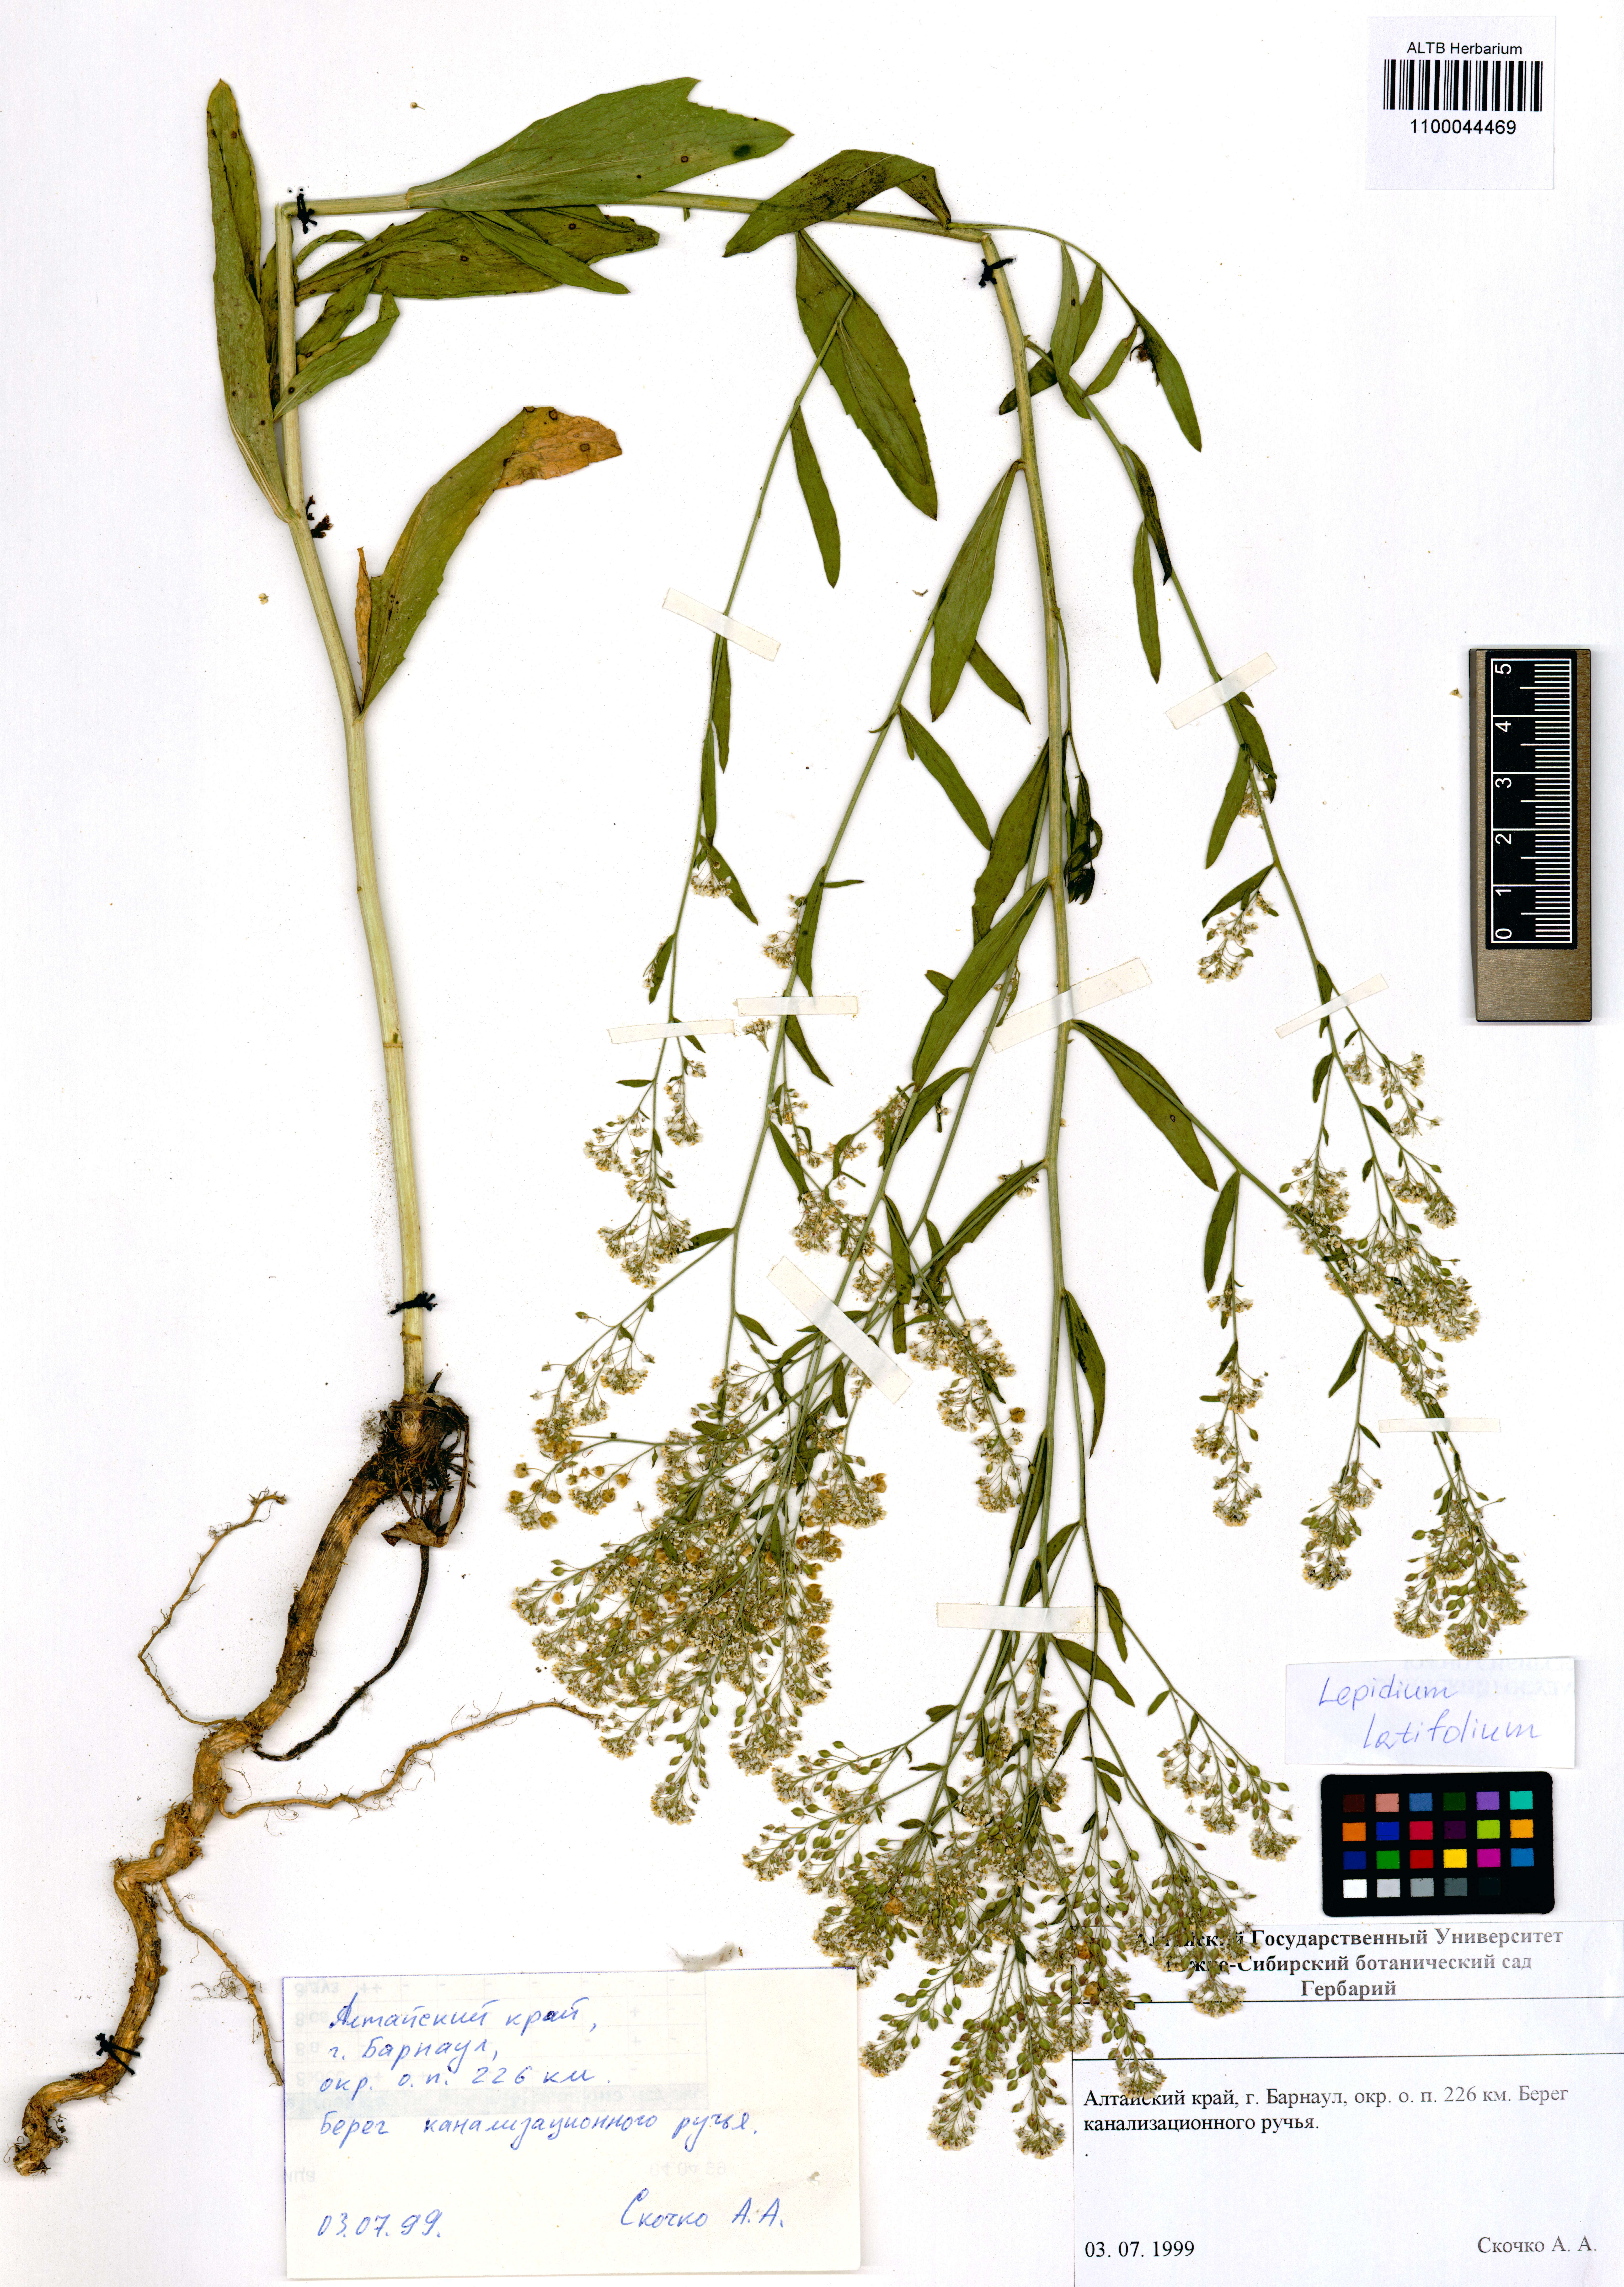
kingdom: Plantae
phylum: Tracheophyta
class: Magnoliopsida
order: Brassicales
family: Brassicaceae
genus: Lepidium
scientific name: Lepidium latifolium
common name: Dittander
